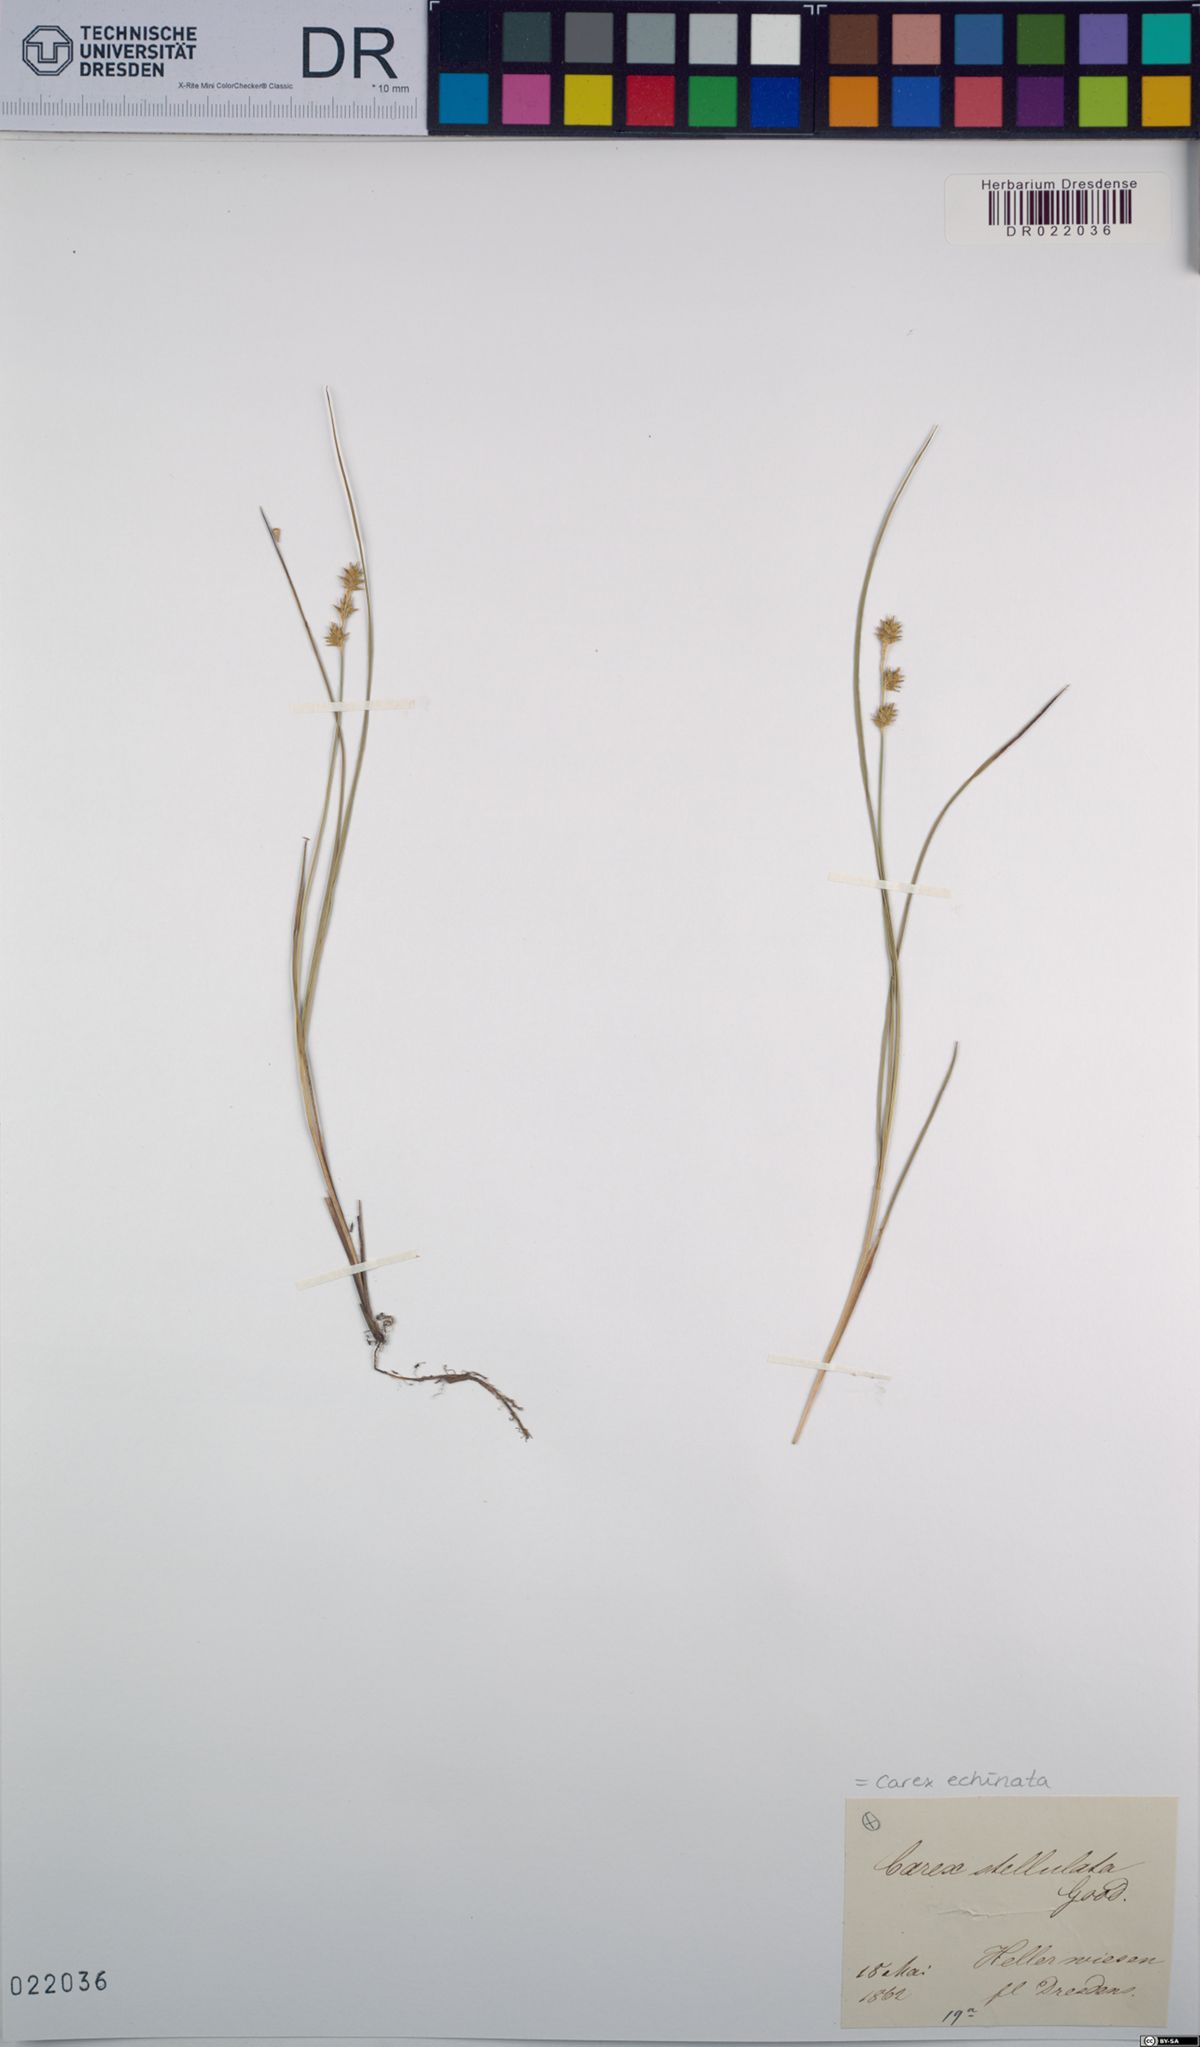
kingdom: Plantae
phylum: Tracheophyta
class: Liliopsida
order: Poales
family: Cyperaceae
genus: Carex
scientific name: Carex echinata
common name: Star sedge
